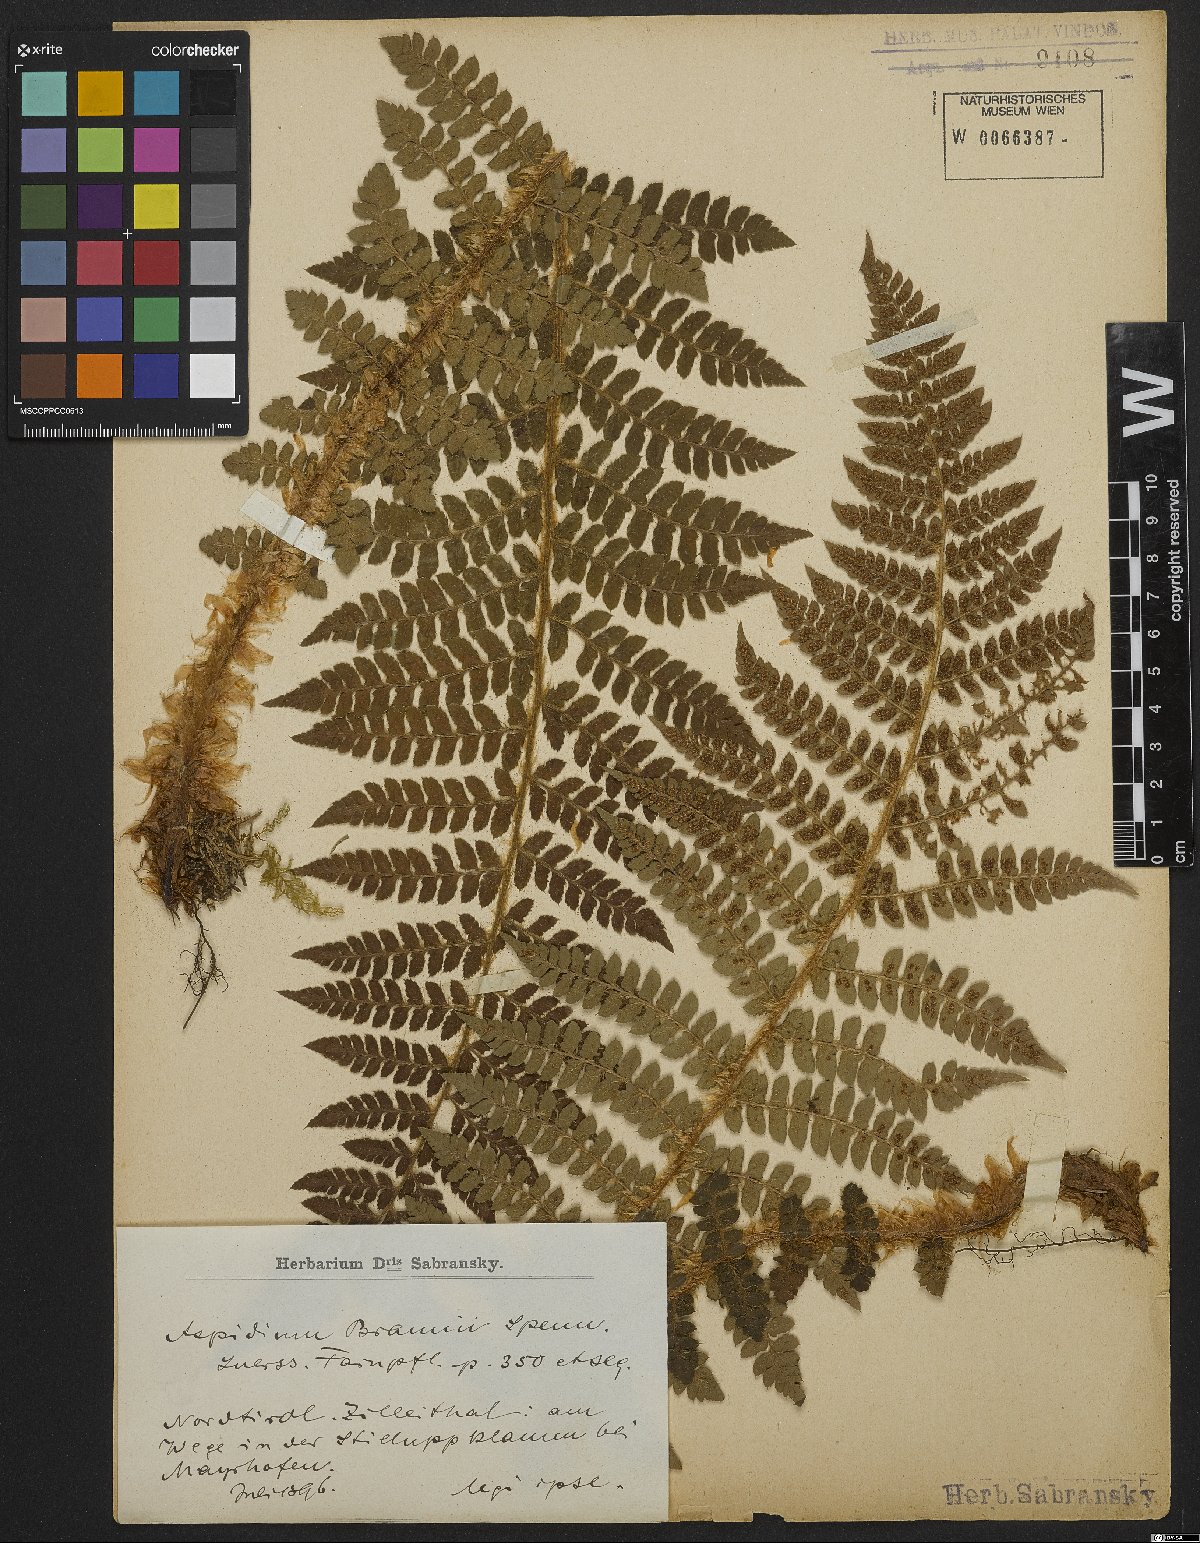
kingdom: Plantae
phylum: Tracheophyta
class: Polypodiopsida
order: Polypodiales
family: Dryopteridaceae
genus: Polystichum
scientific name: Polystichum braunii
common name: Braun's holly fern
